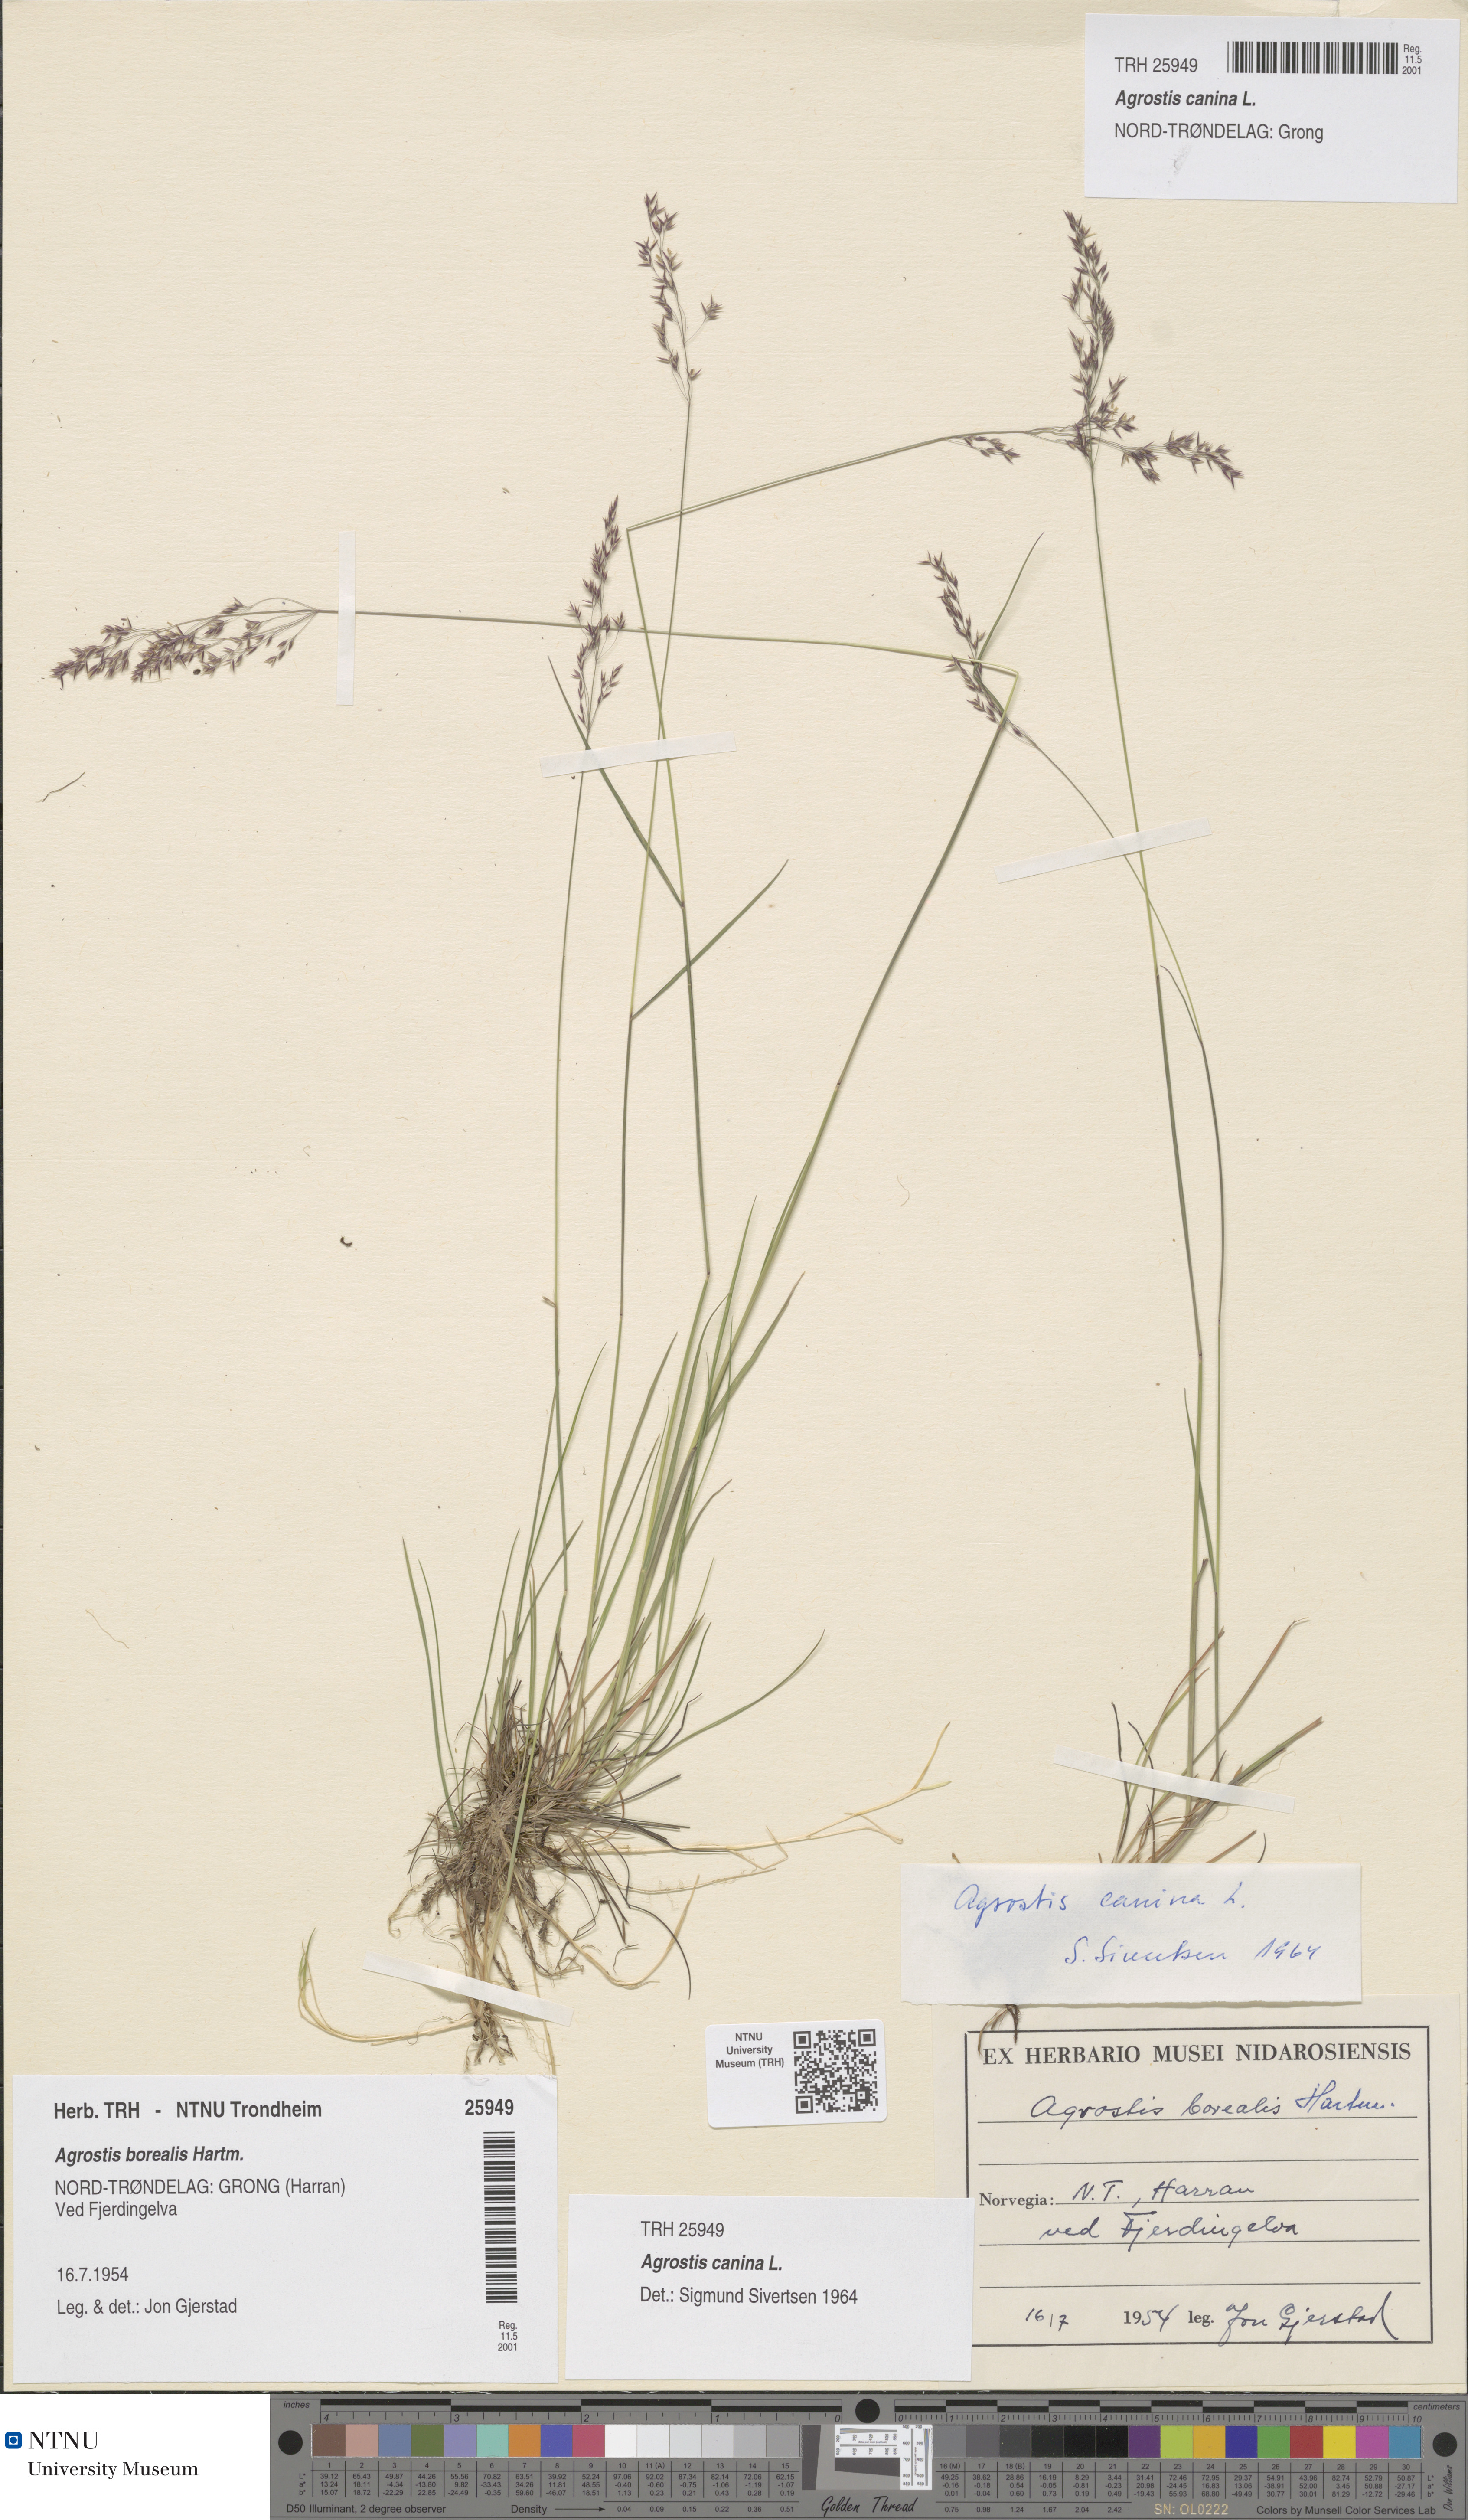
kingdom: Plantae
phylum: Tracheophyta
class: Liliopsida
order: Poales
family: Poaceae
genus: Agrostis
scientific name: Agrostis canina
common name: Velvet bent
